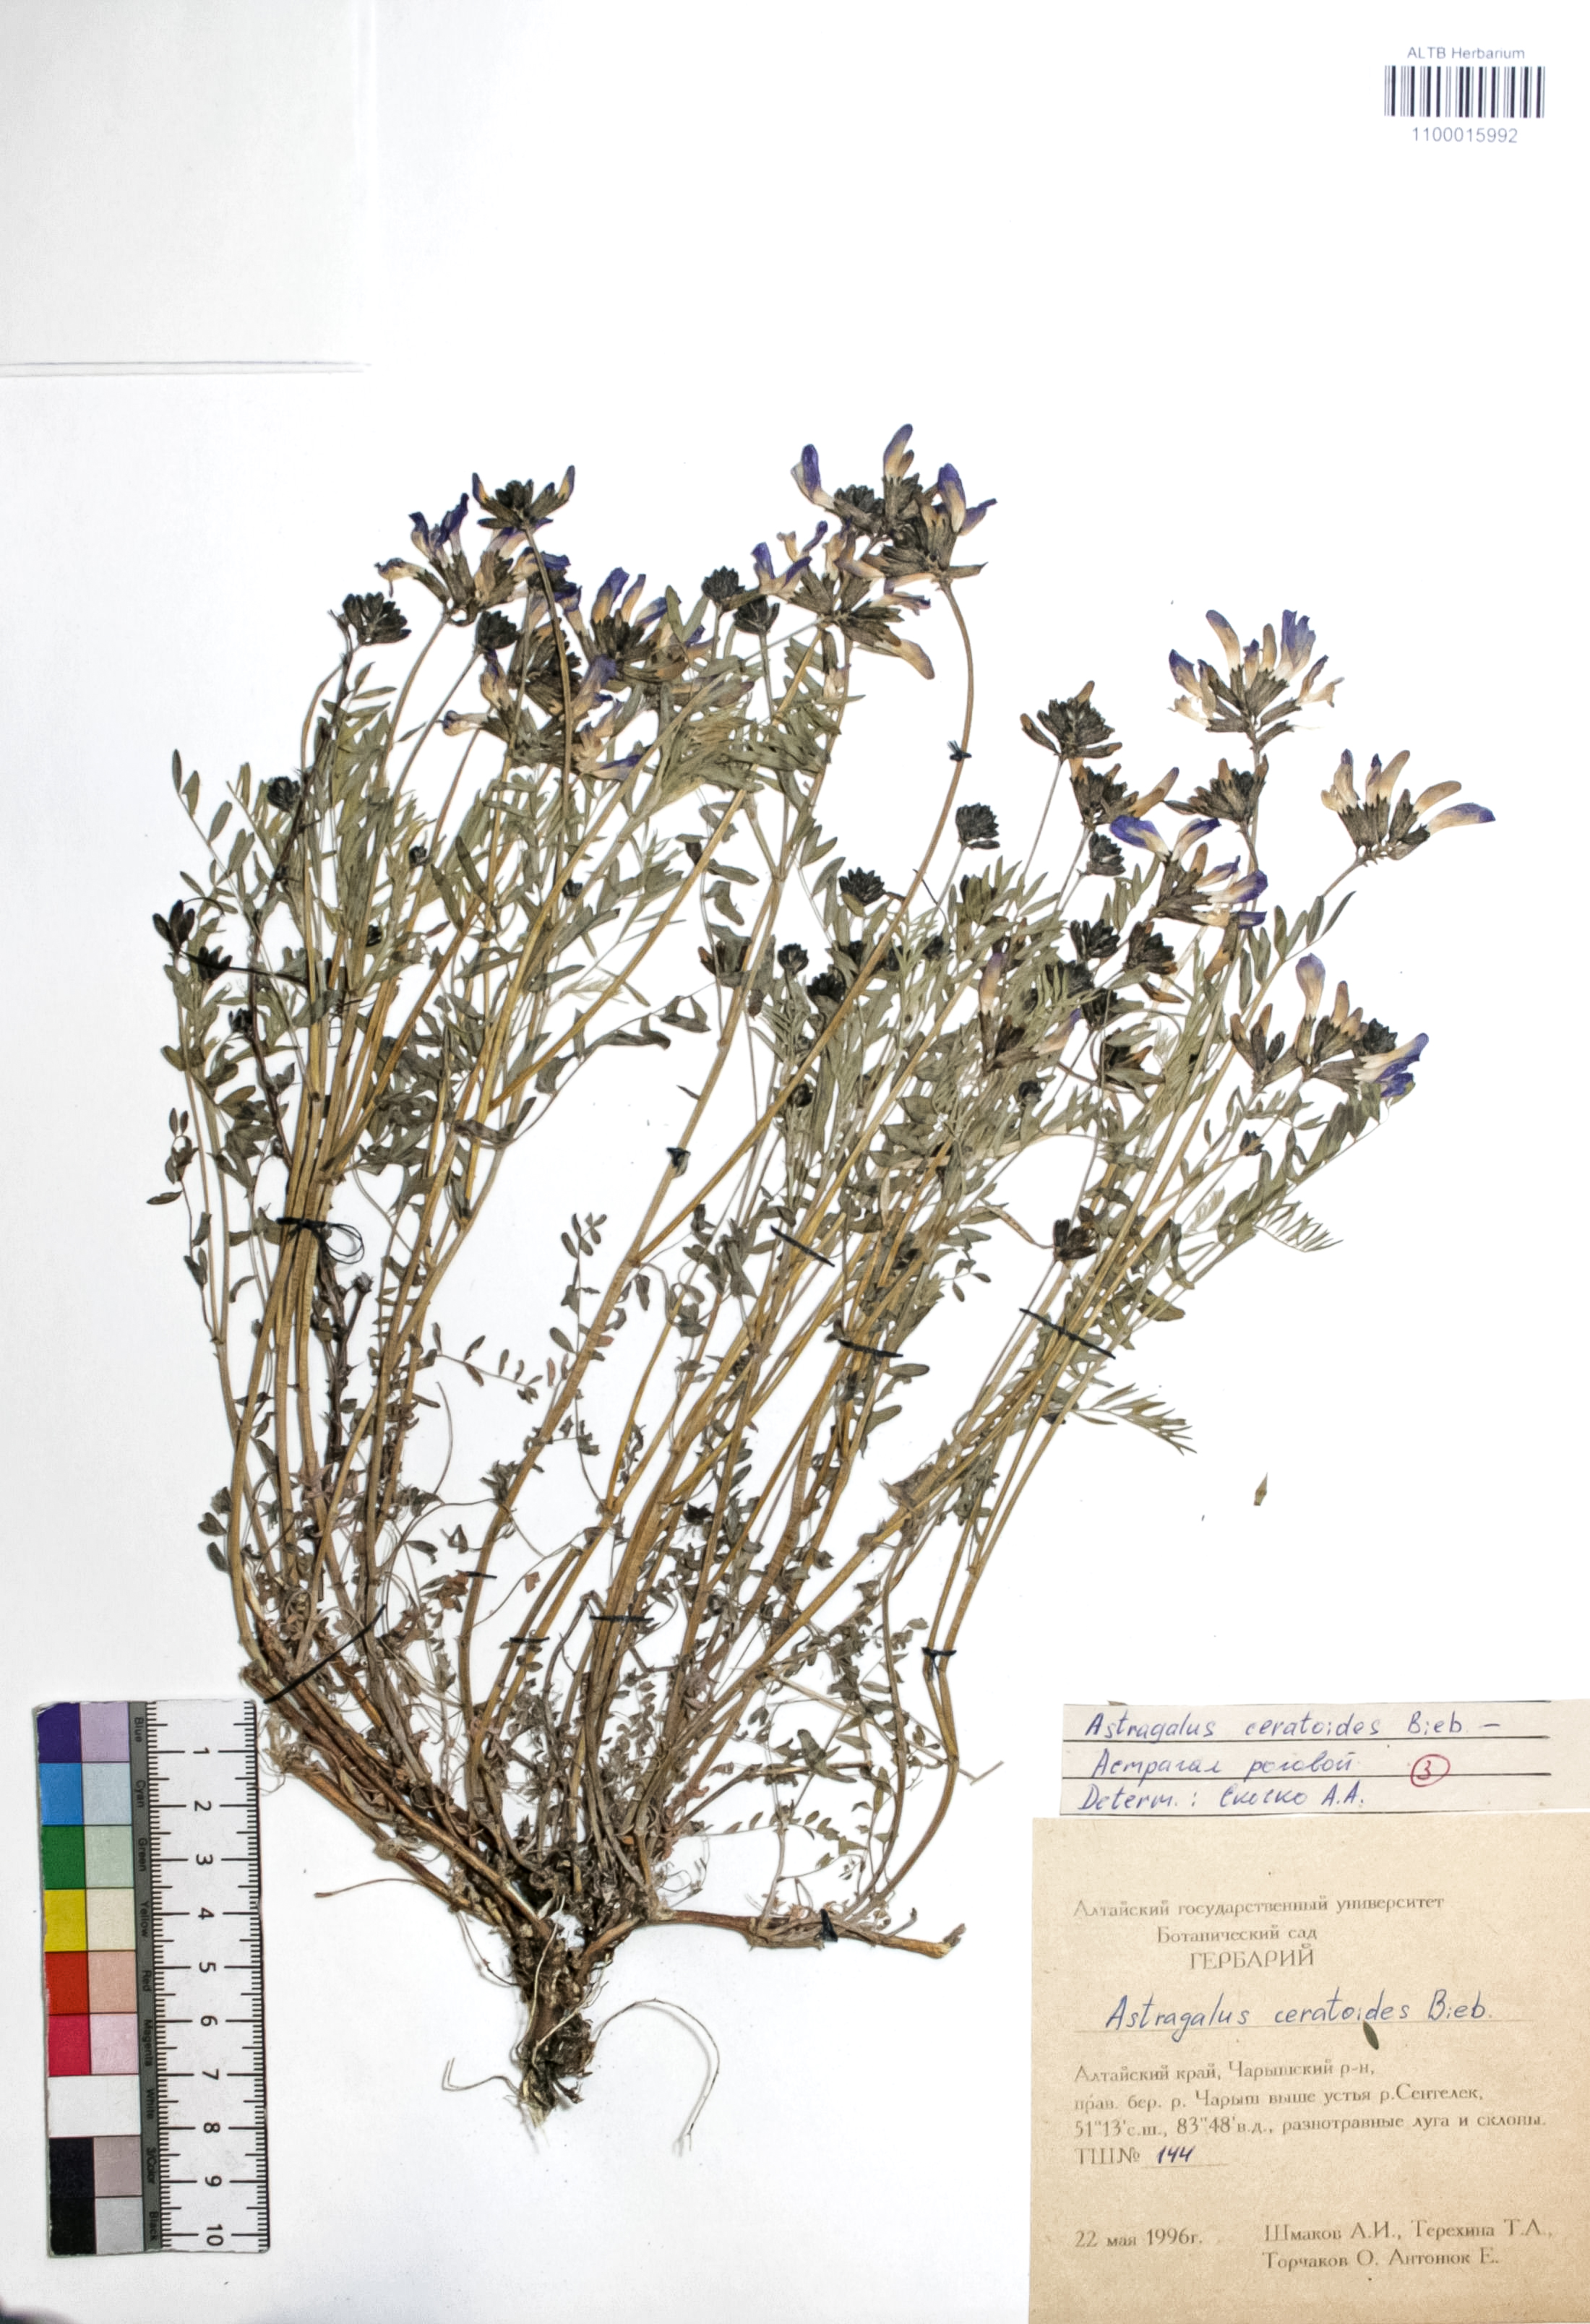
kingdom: Plantae
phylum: Tracheophyta
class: Magnoliopsida
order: Fabales
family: Fabaceae
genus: Astragalus
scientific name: Astragalus ceratoides
